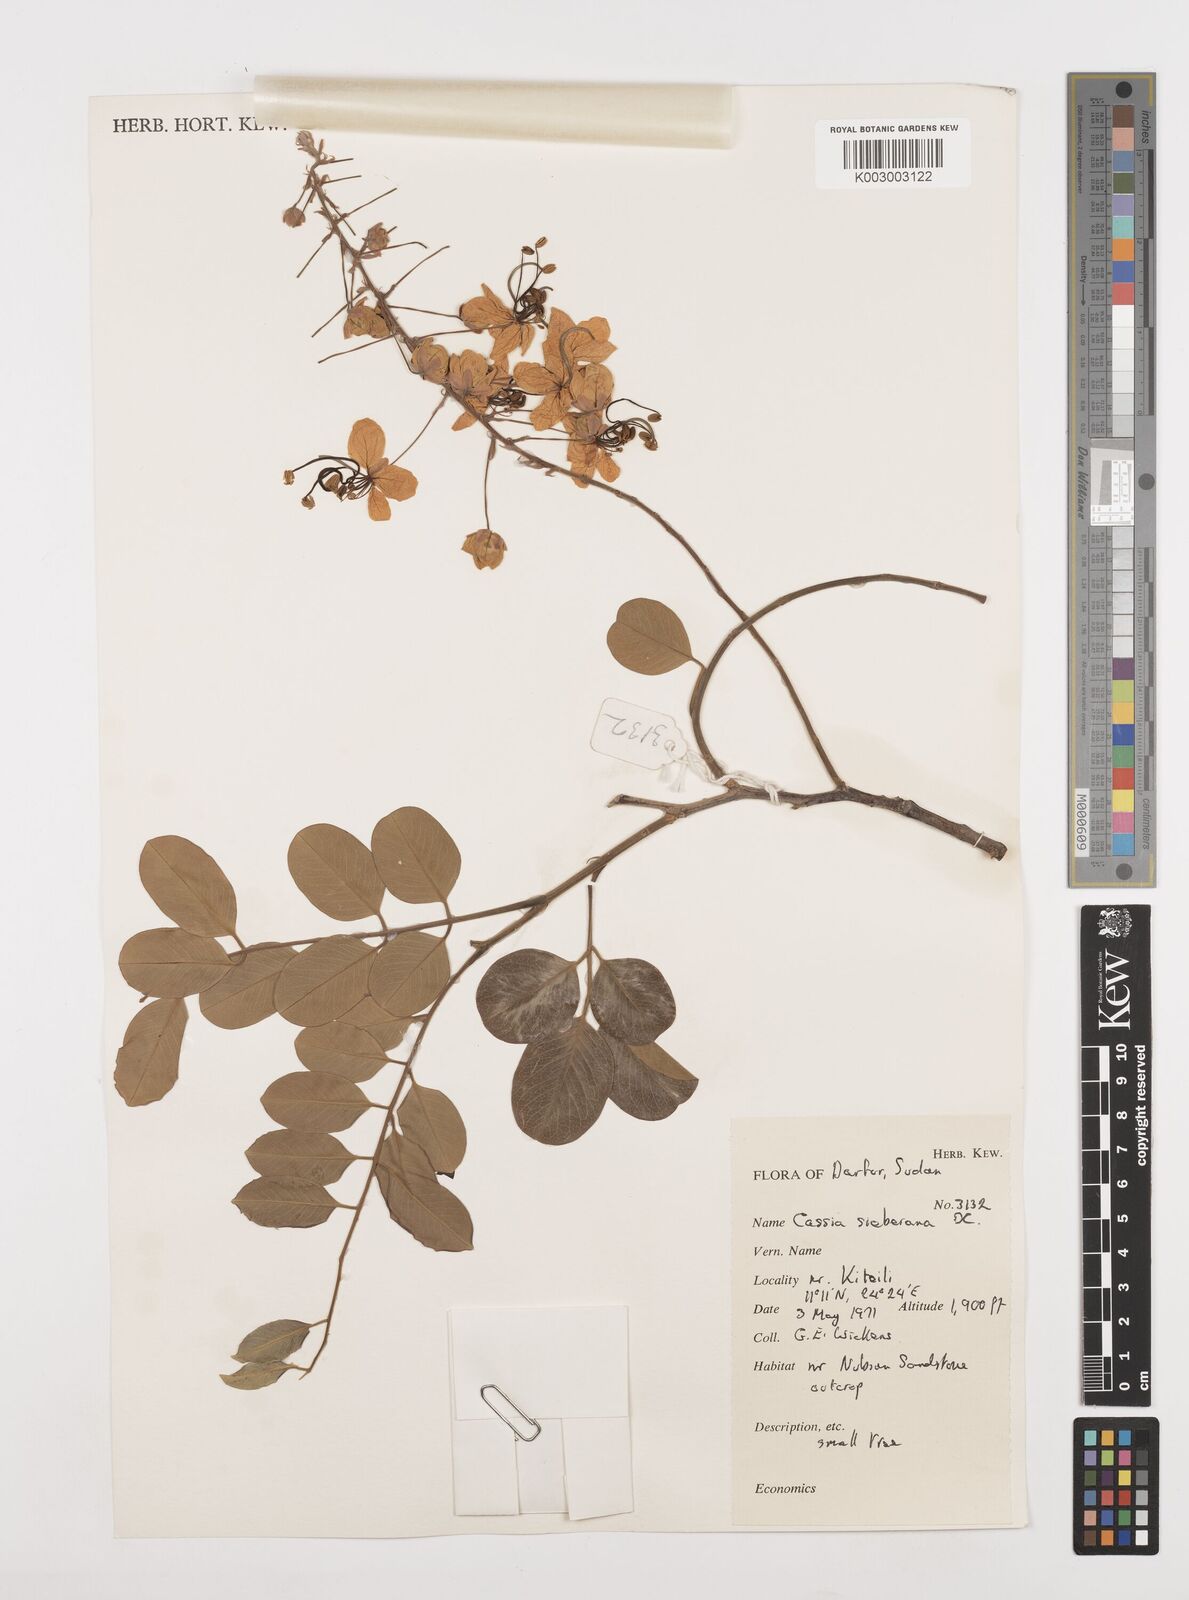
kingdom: Plantae
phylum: Tracheophyta
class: Magnoliopsida
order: Fabales
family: Fabaceae
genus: Cassia
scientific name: Cassia sieberiana
